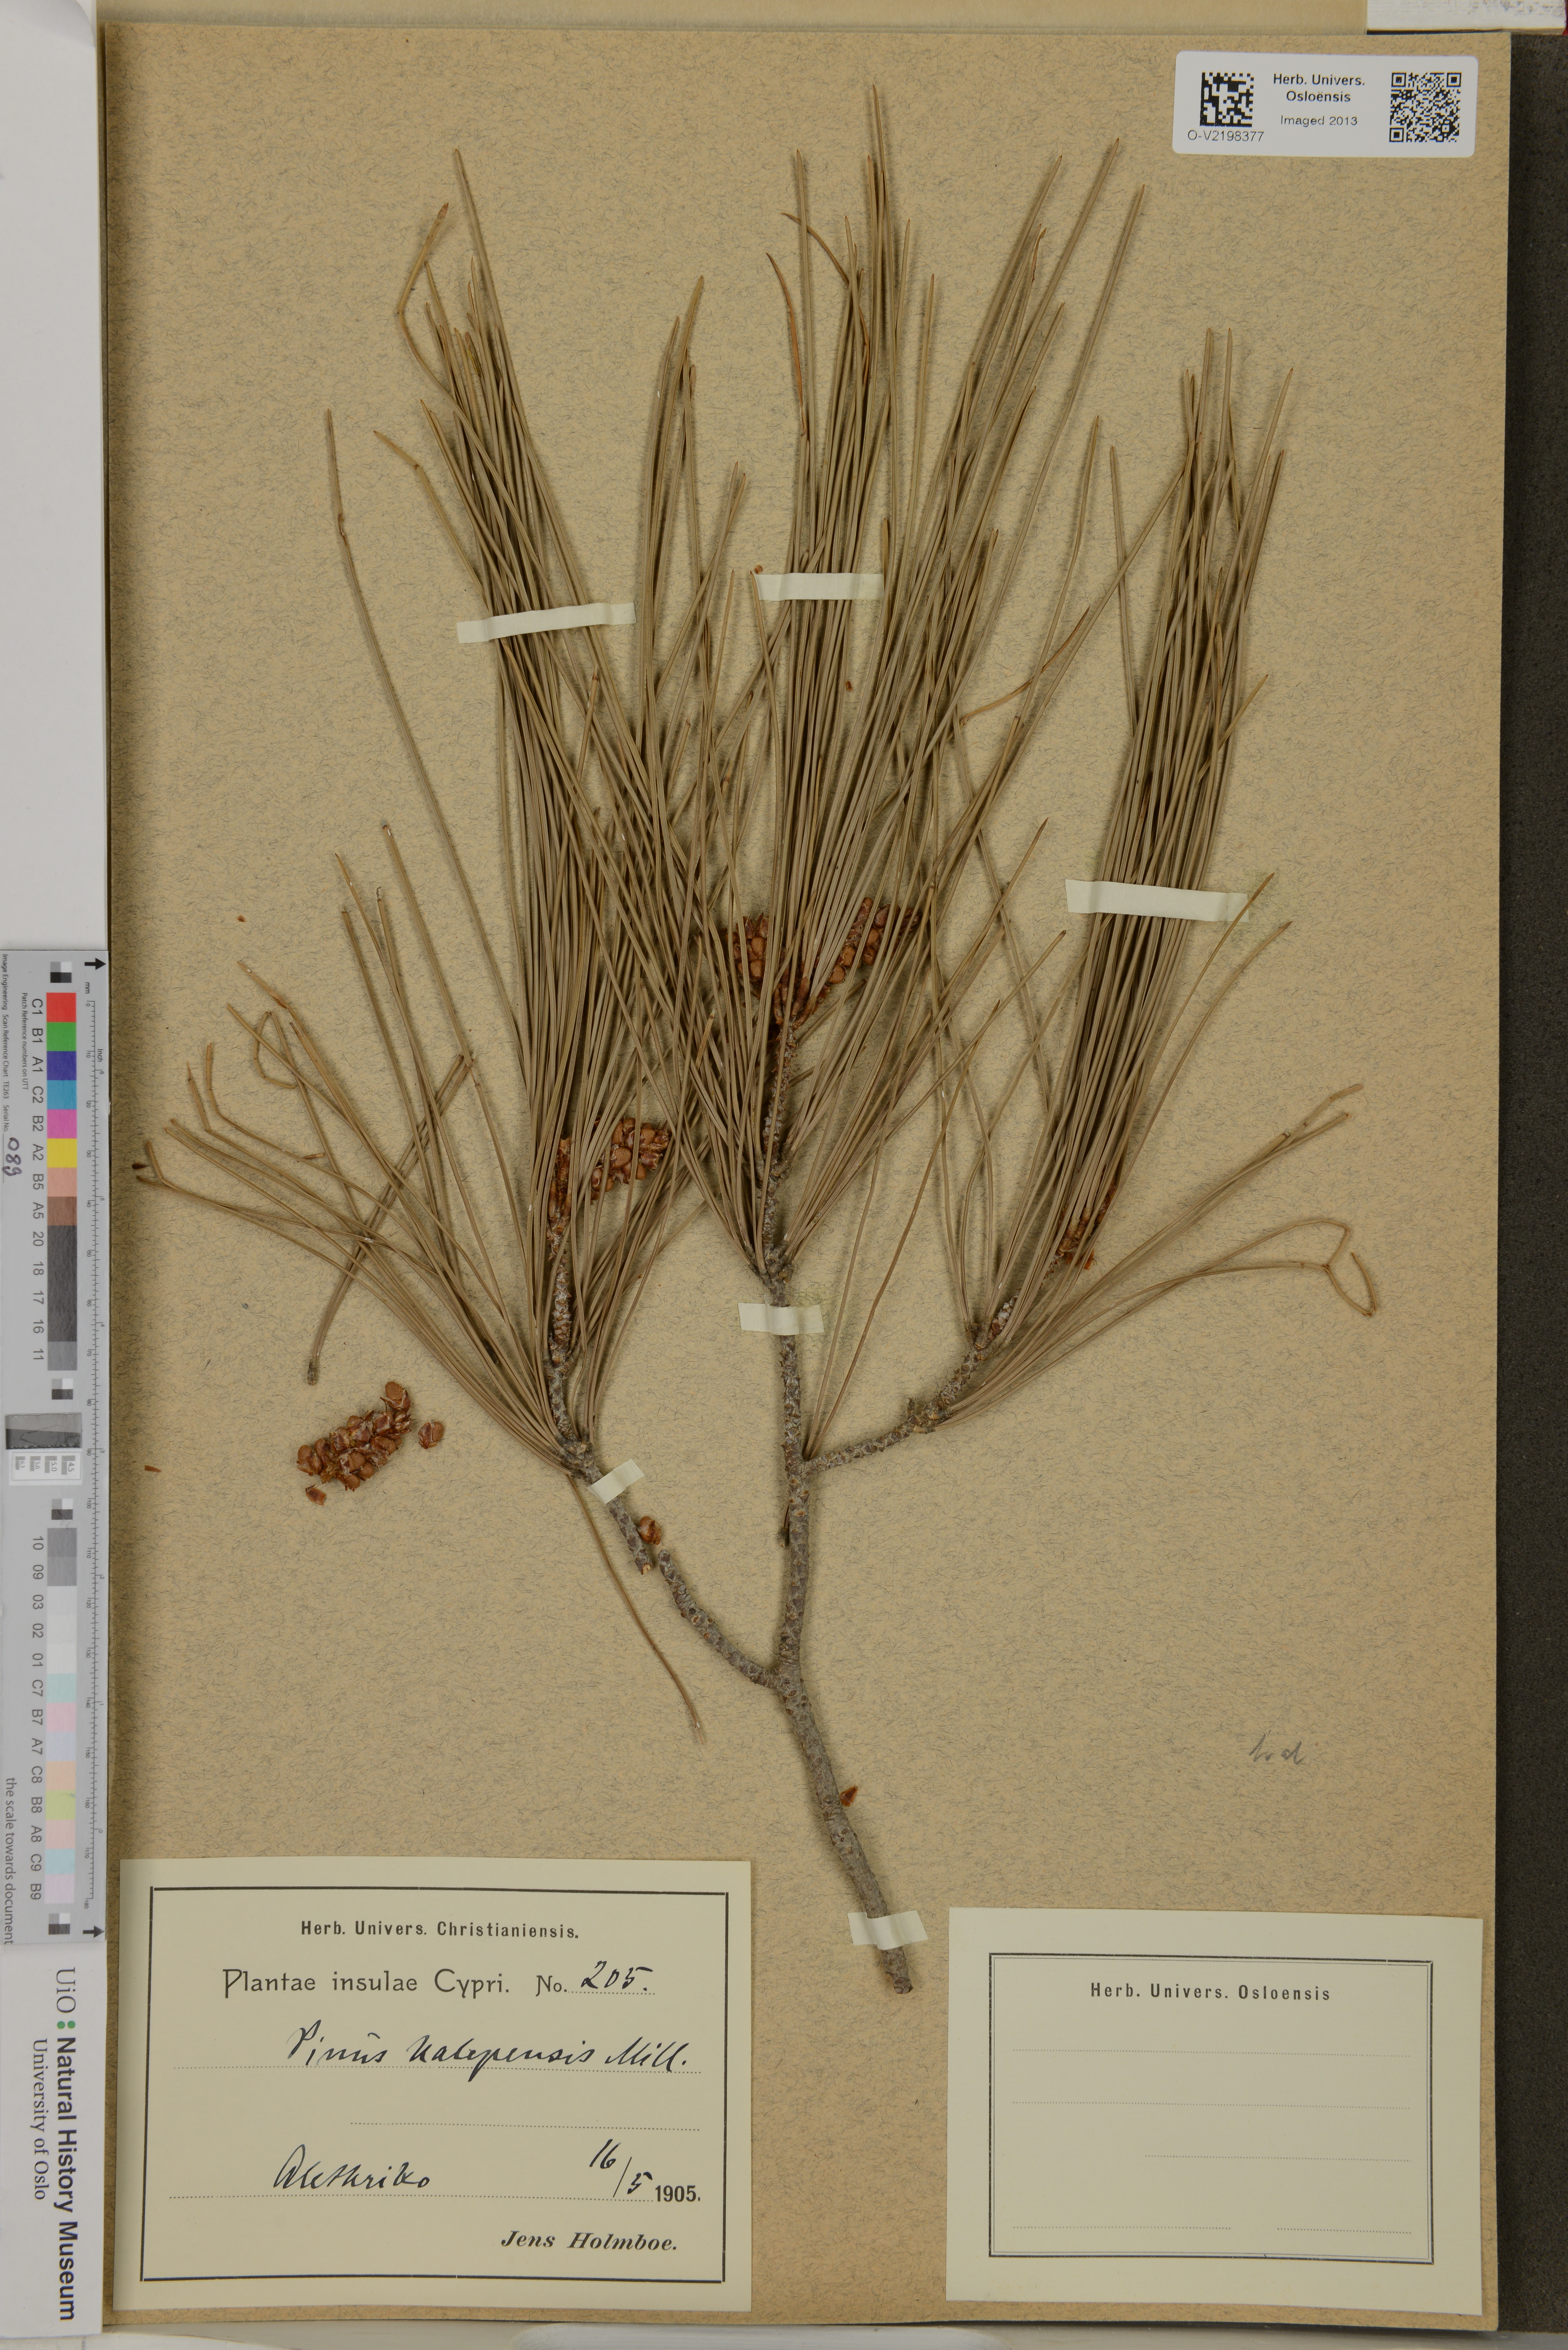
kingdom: Plantae
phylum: Tracheophyta
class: Pinopsida
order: Pinales
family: Pinaceae
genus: Pinus
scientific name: Pinus halepensis
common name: Aleppo pine
